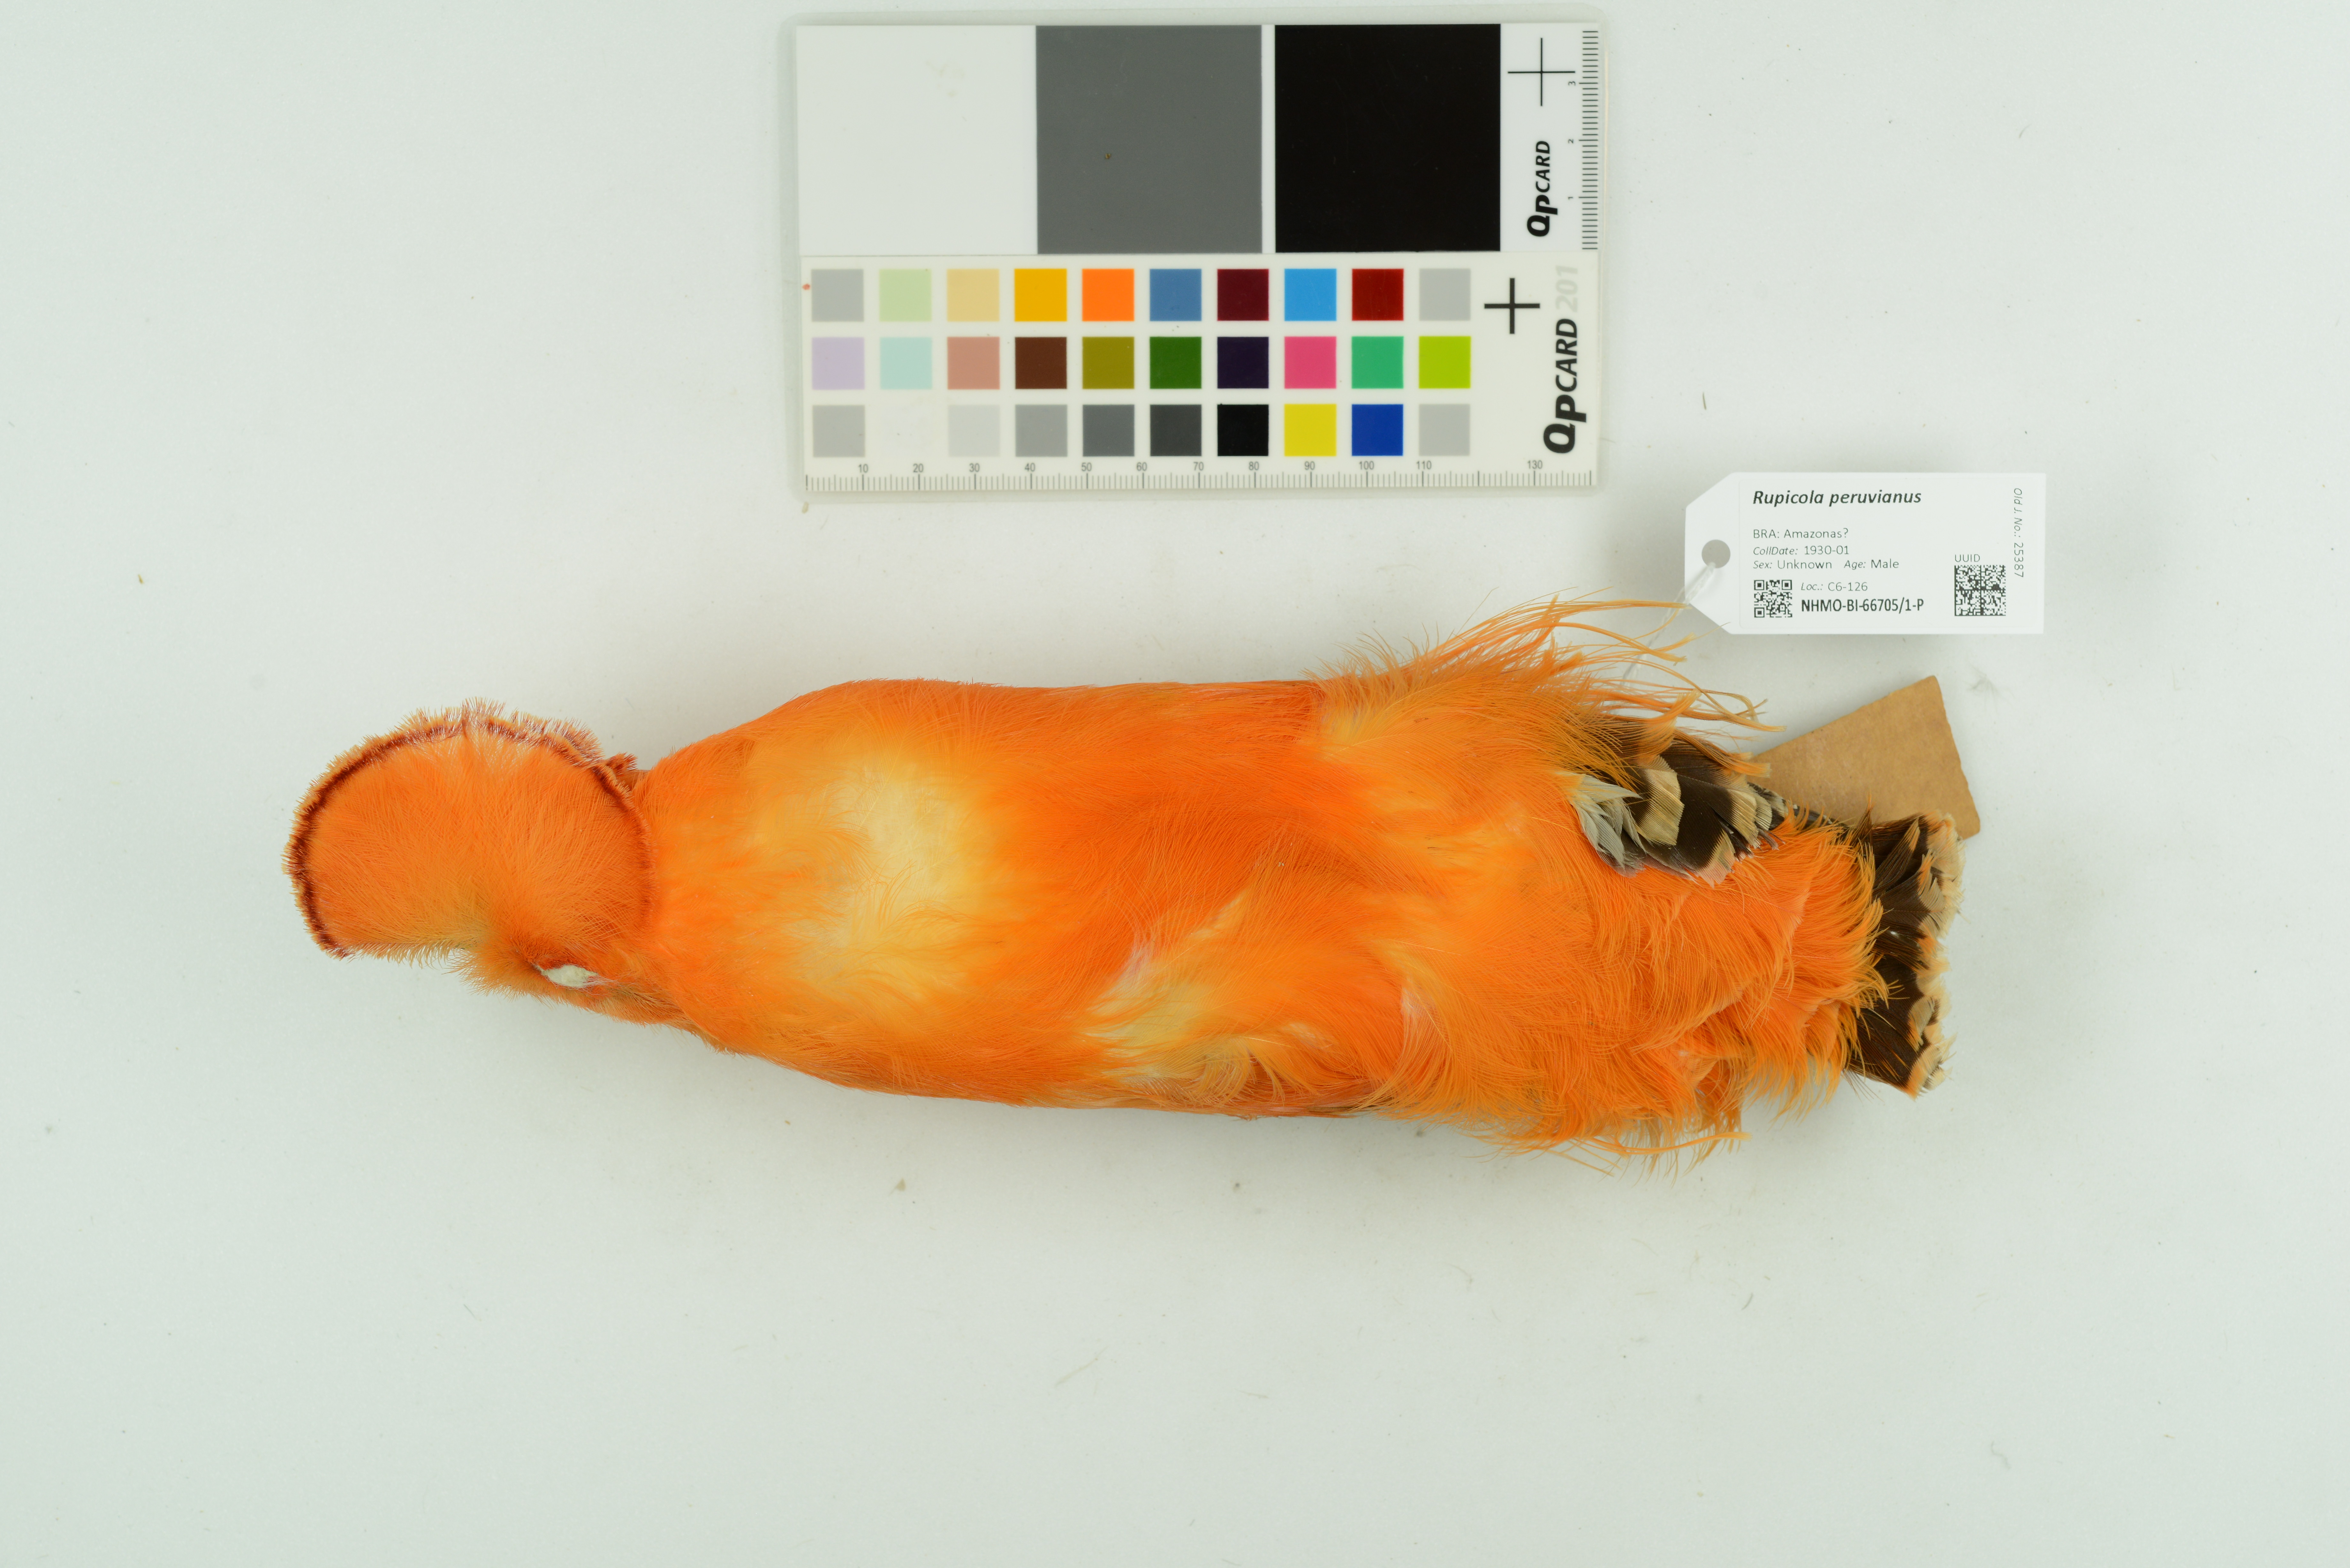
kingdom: Animalia
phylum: Chordata
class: Aves
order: Passeriformes
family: Cotingidae
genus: Rupicola
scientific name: Rupicola peruvianus
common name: Andean cock-of-the-rock
